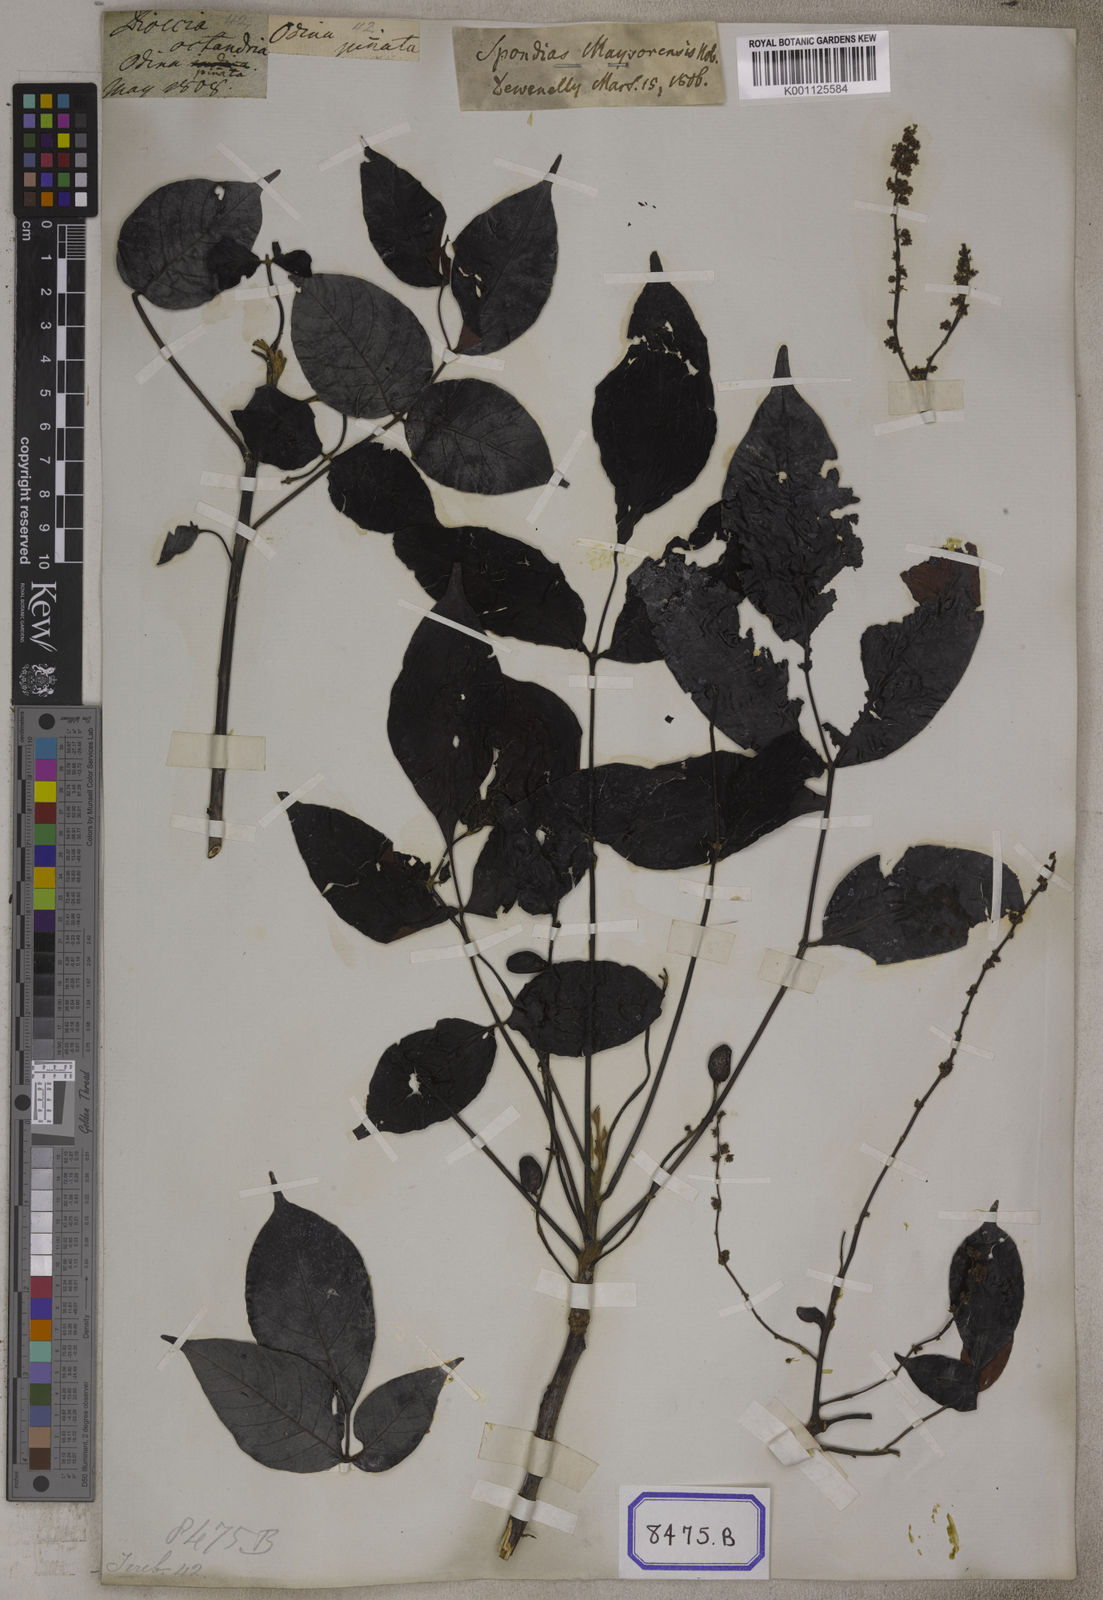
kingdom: Plantae
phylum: Tracheophyta
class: Magnoliopsida
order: Sapindales
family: Anacardiaceae
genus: Lannea
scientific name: Lannea coromandelica
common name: Indian ash tree
